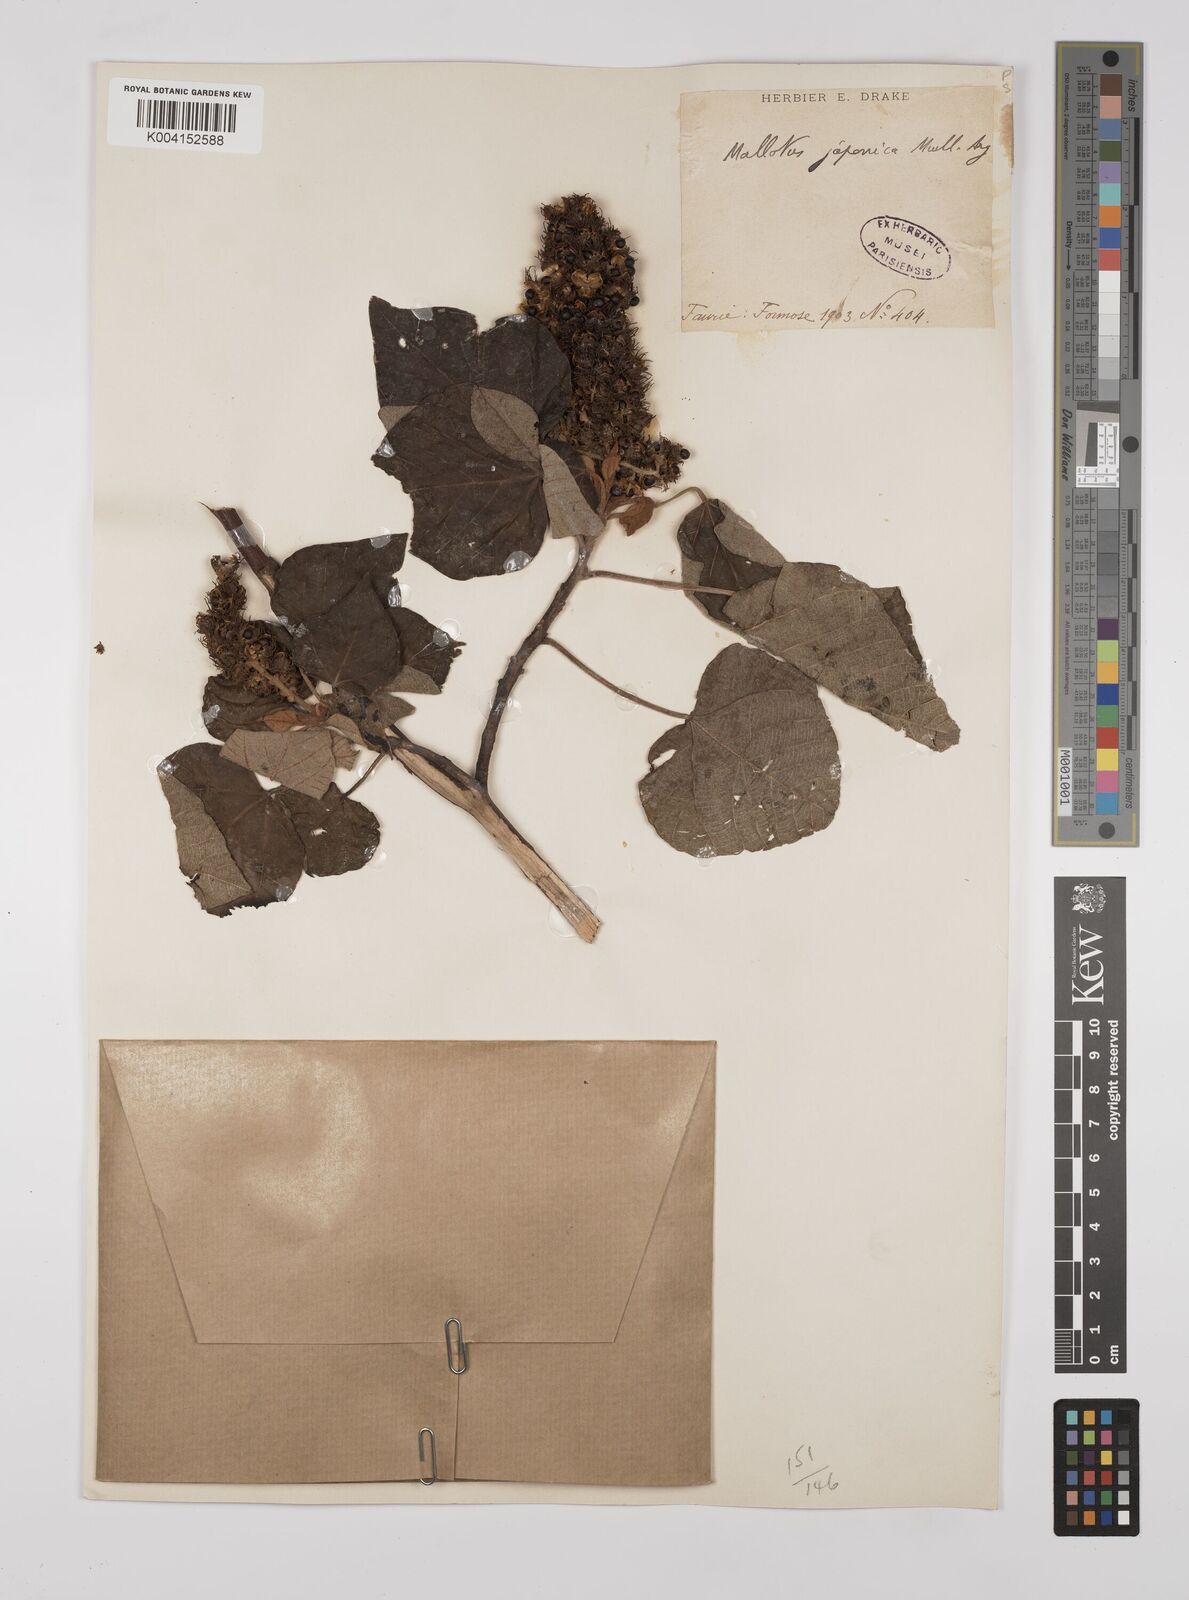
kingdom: Plantae
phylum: Tracheophyta
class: Magnoliopsida
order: Malpighiales
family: Euphorbiaceae
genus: Mallotus
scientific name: Mallotus japonicus
